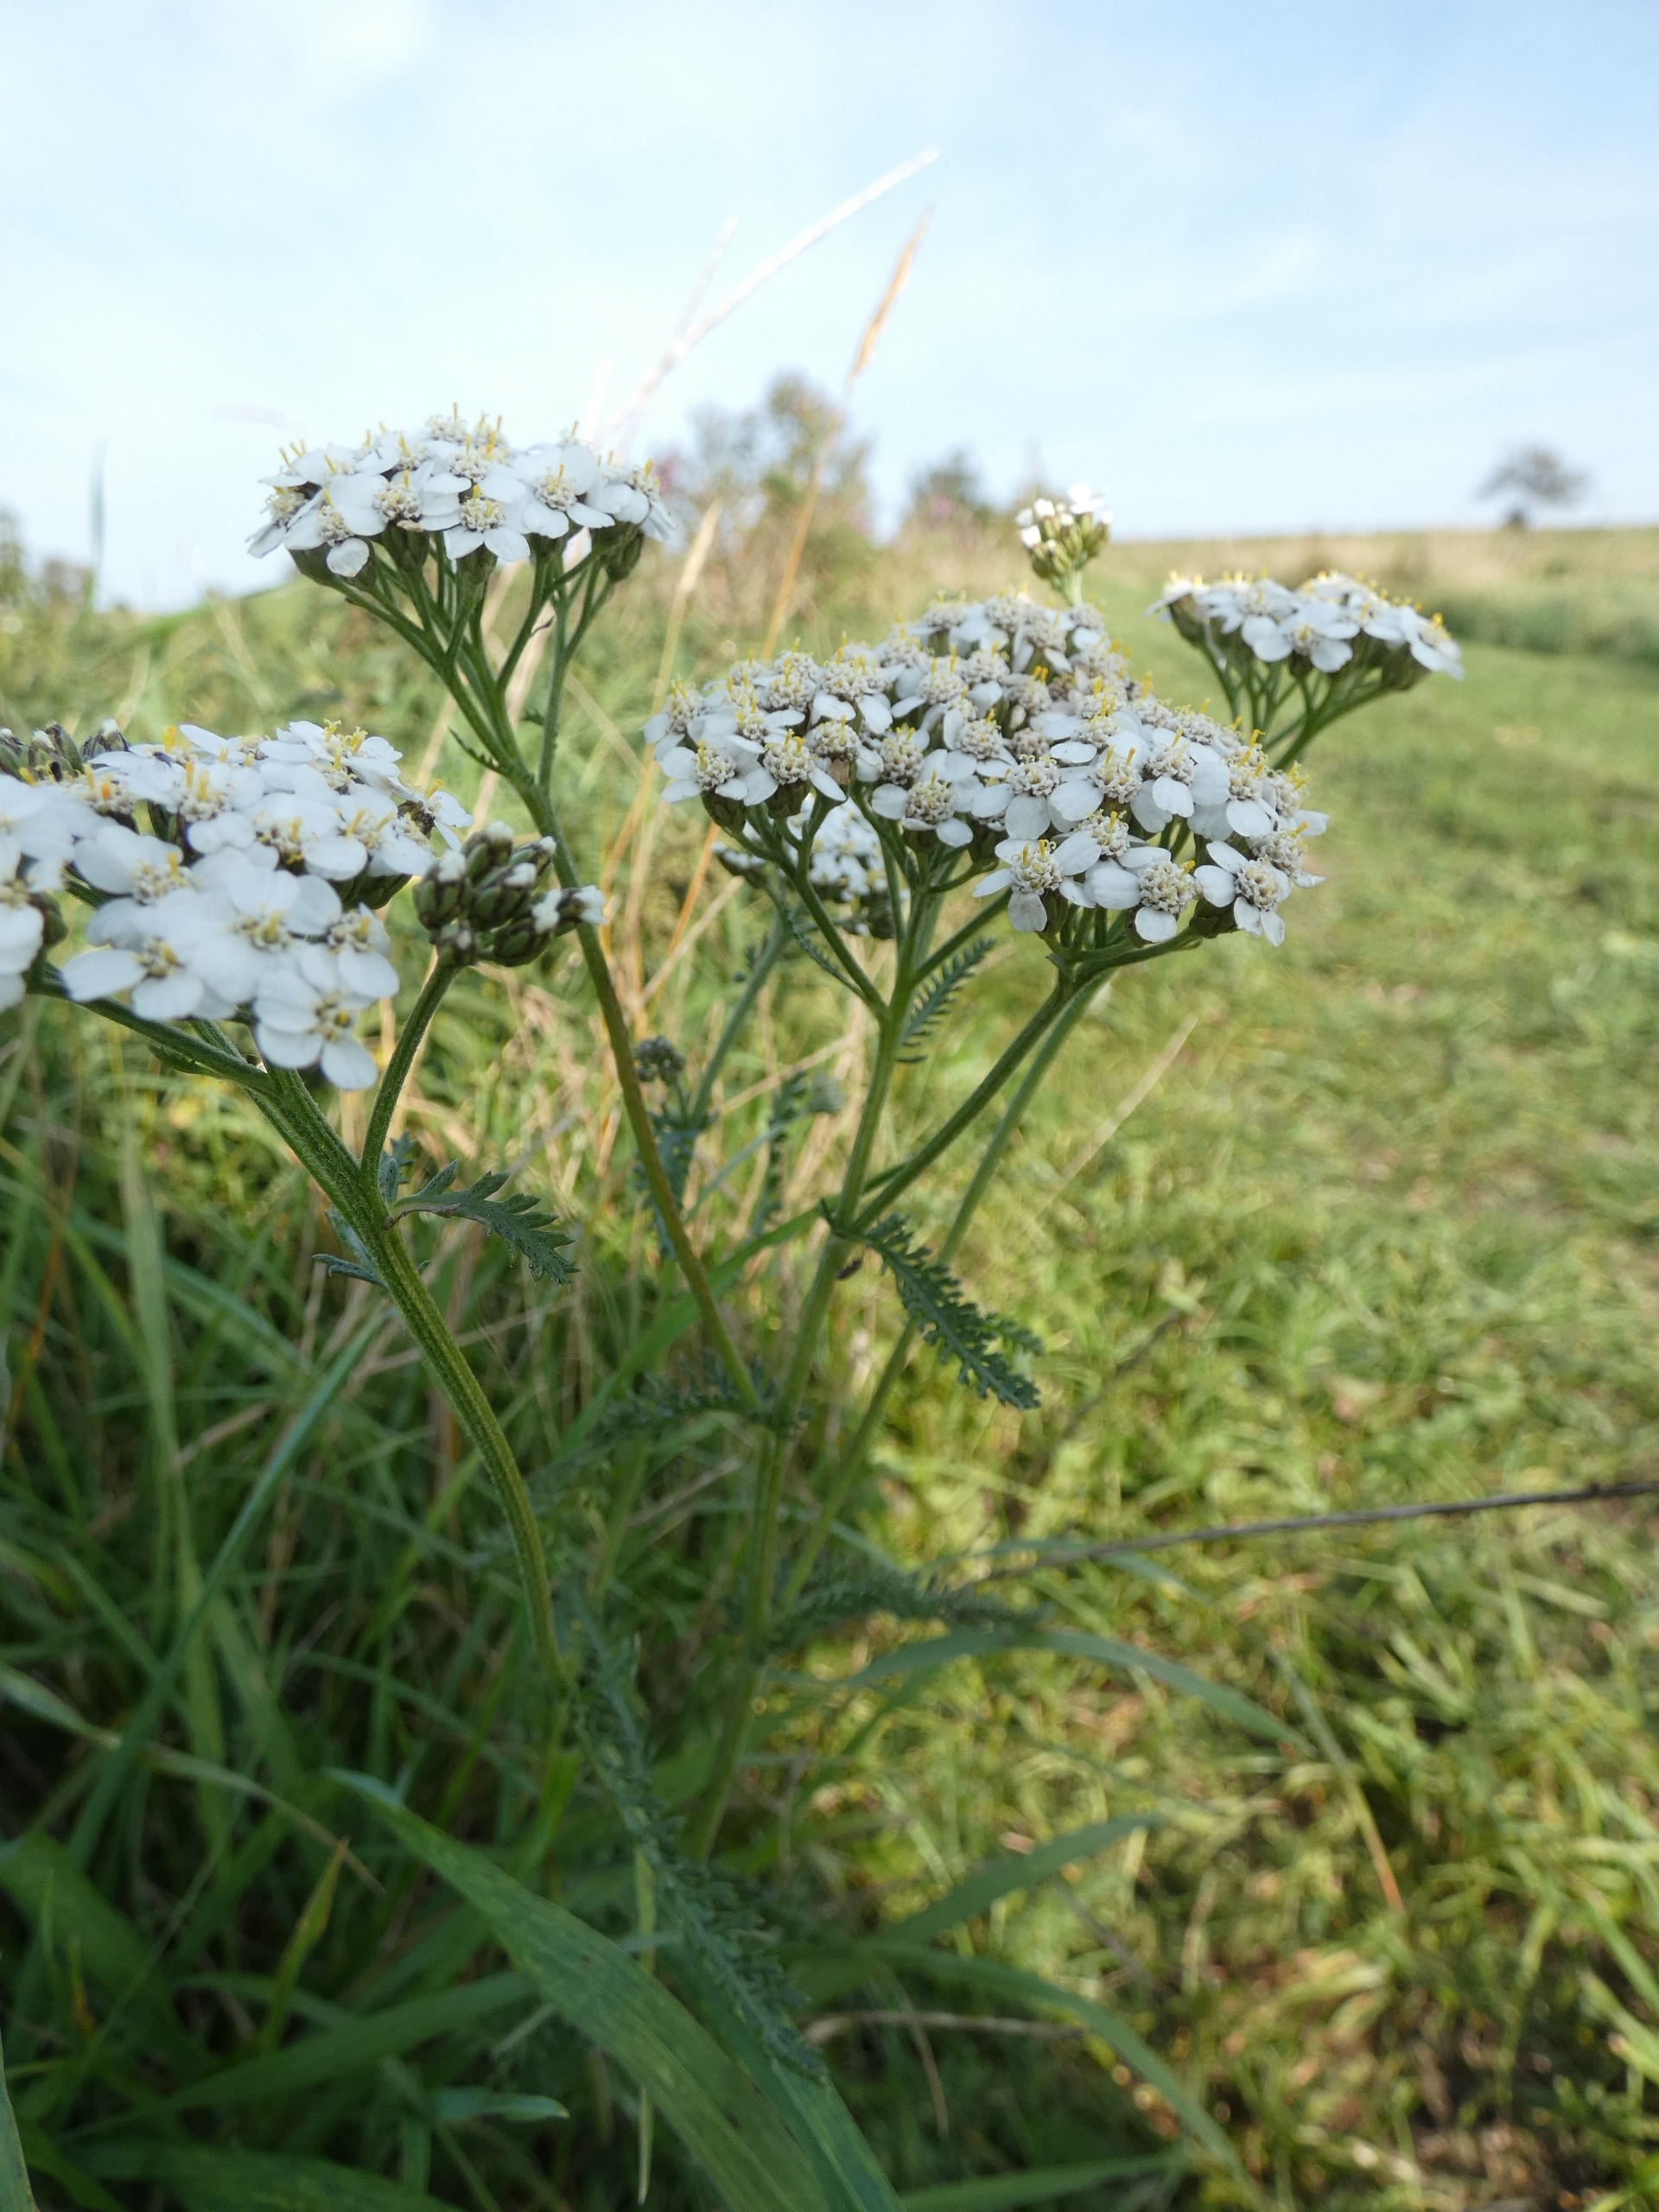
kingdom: Plantae
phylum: Tracheophyta
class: Magnoliopsida
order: Asterales
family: Asteraceae
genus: Achillea
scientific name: Achillea millefolium
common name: Almindelig røllike
